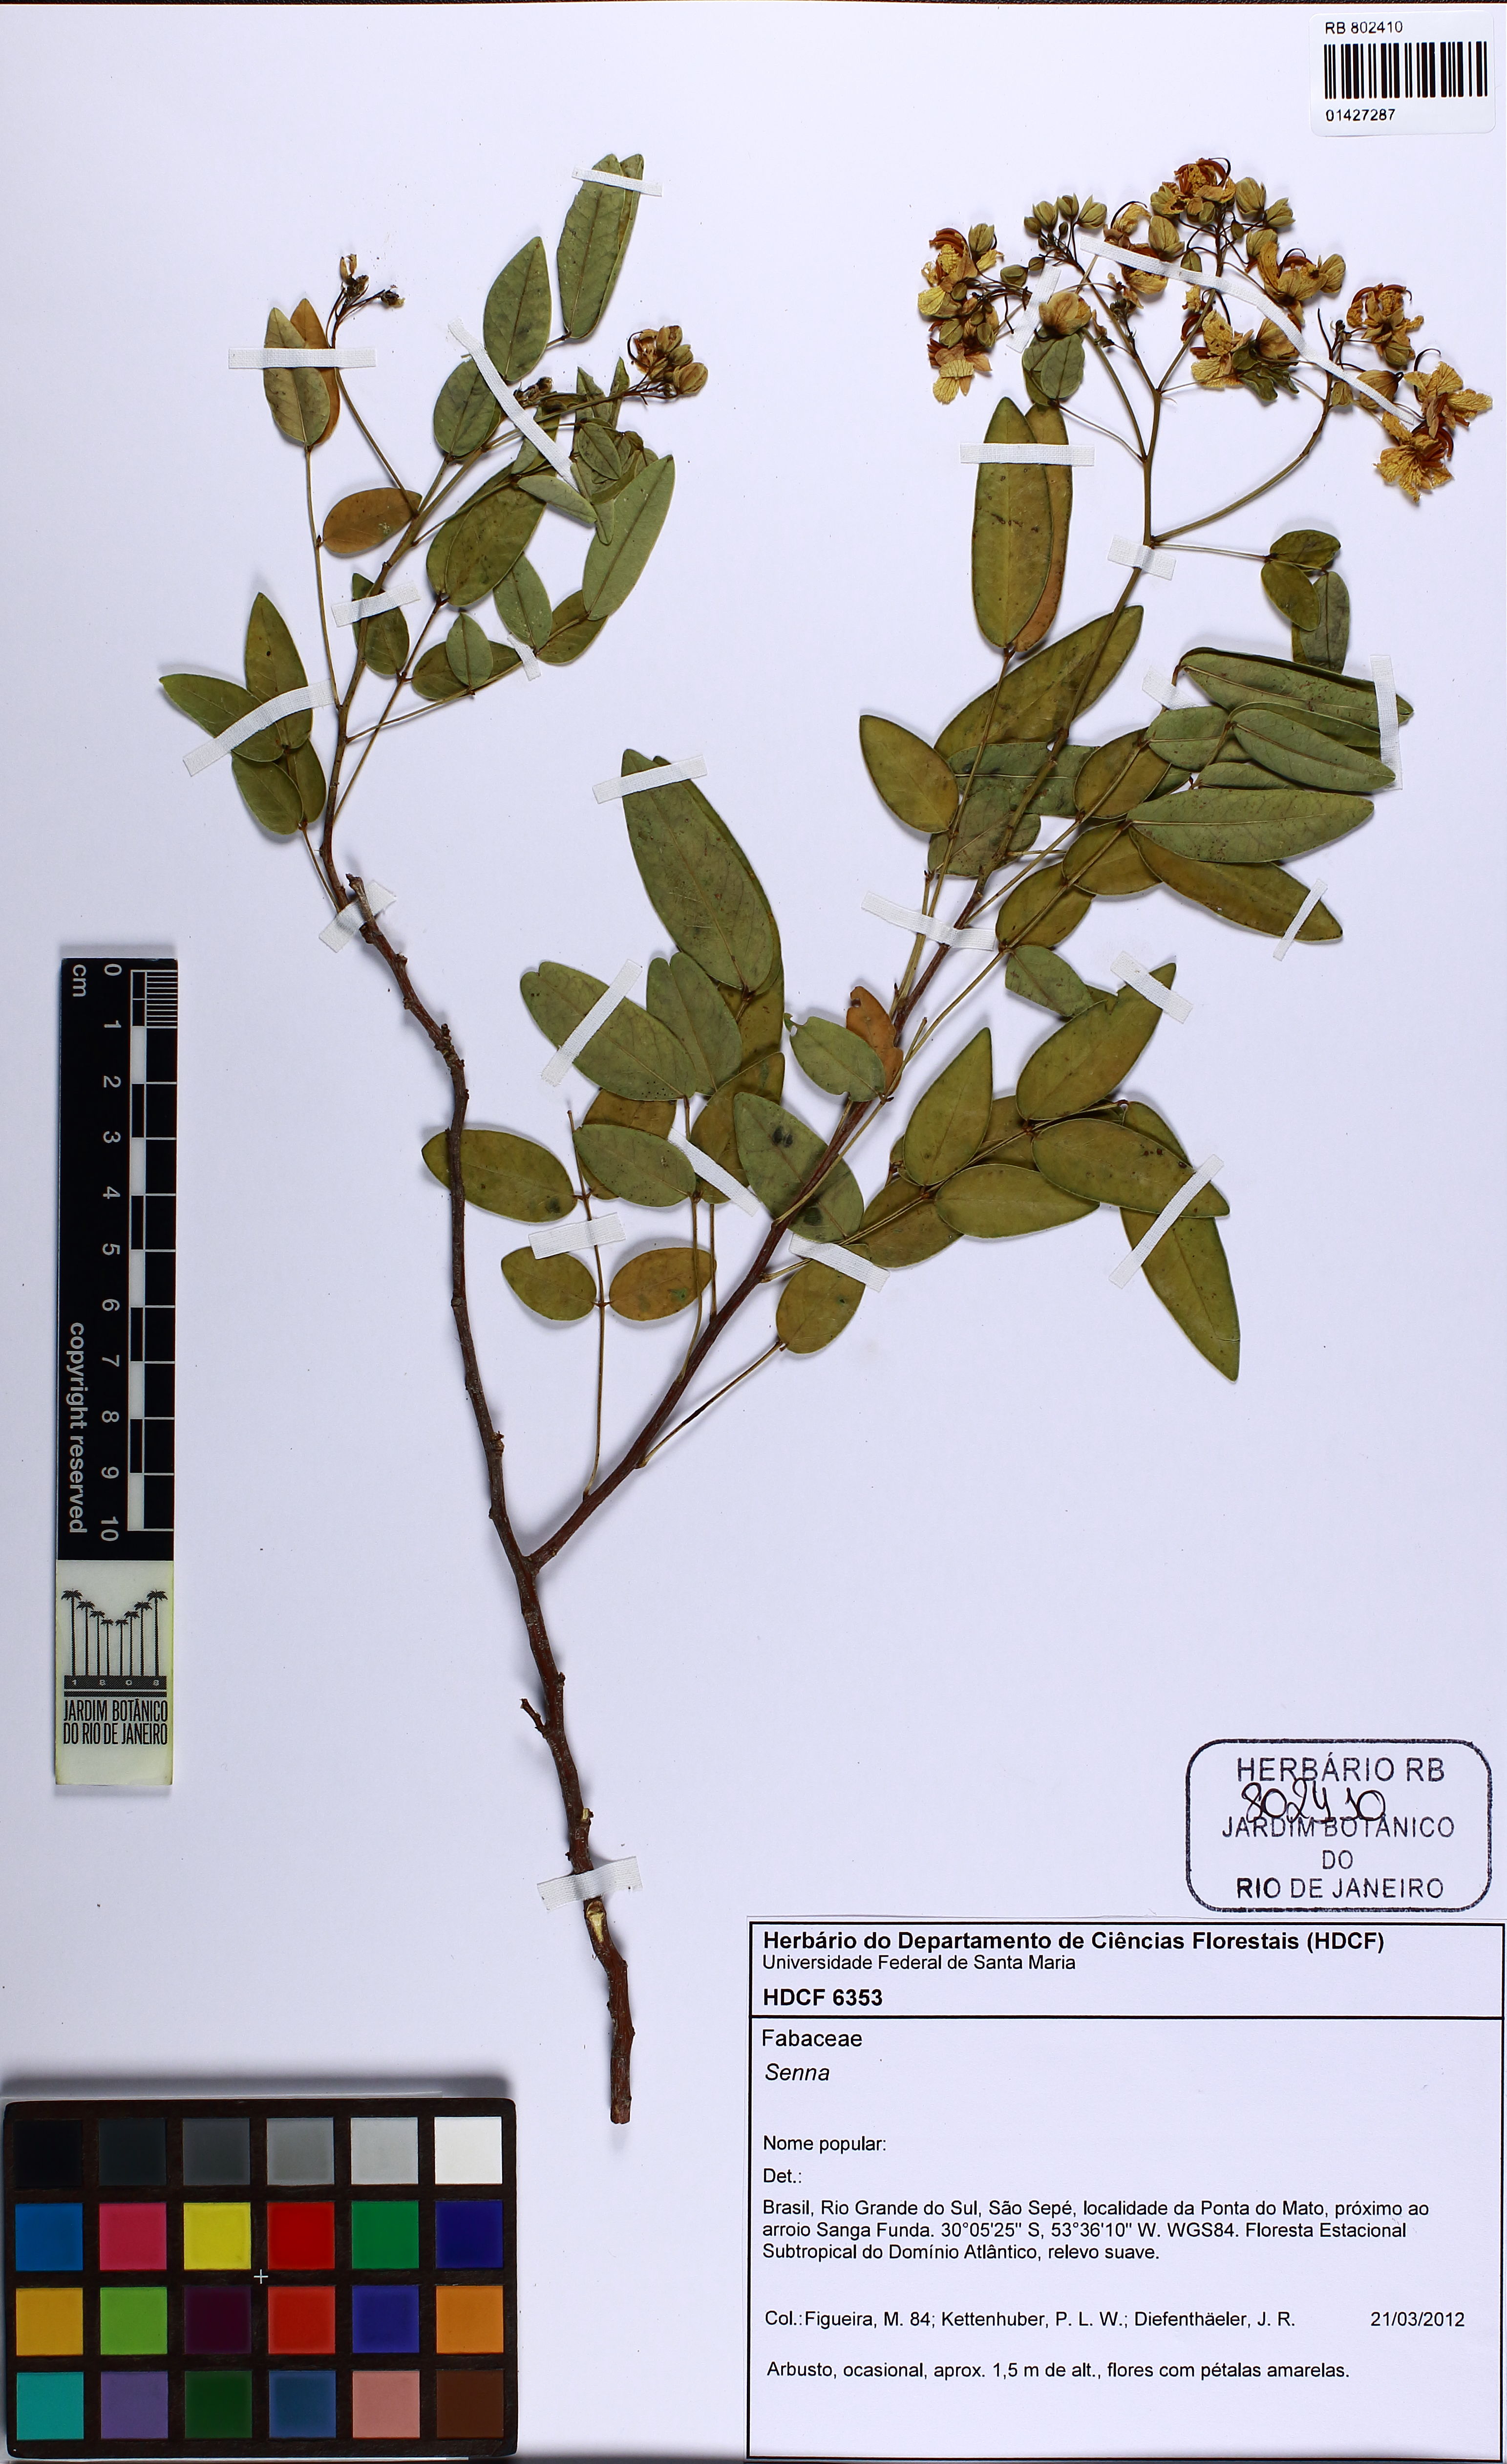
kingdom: Plantae
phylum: Tracheophyta
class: Magnoliopsida
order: Fabales
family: Fabaceae
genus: Senna
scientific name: Senna
